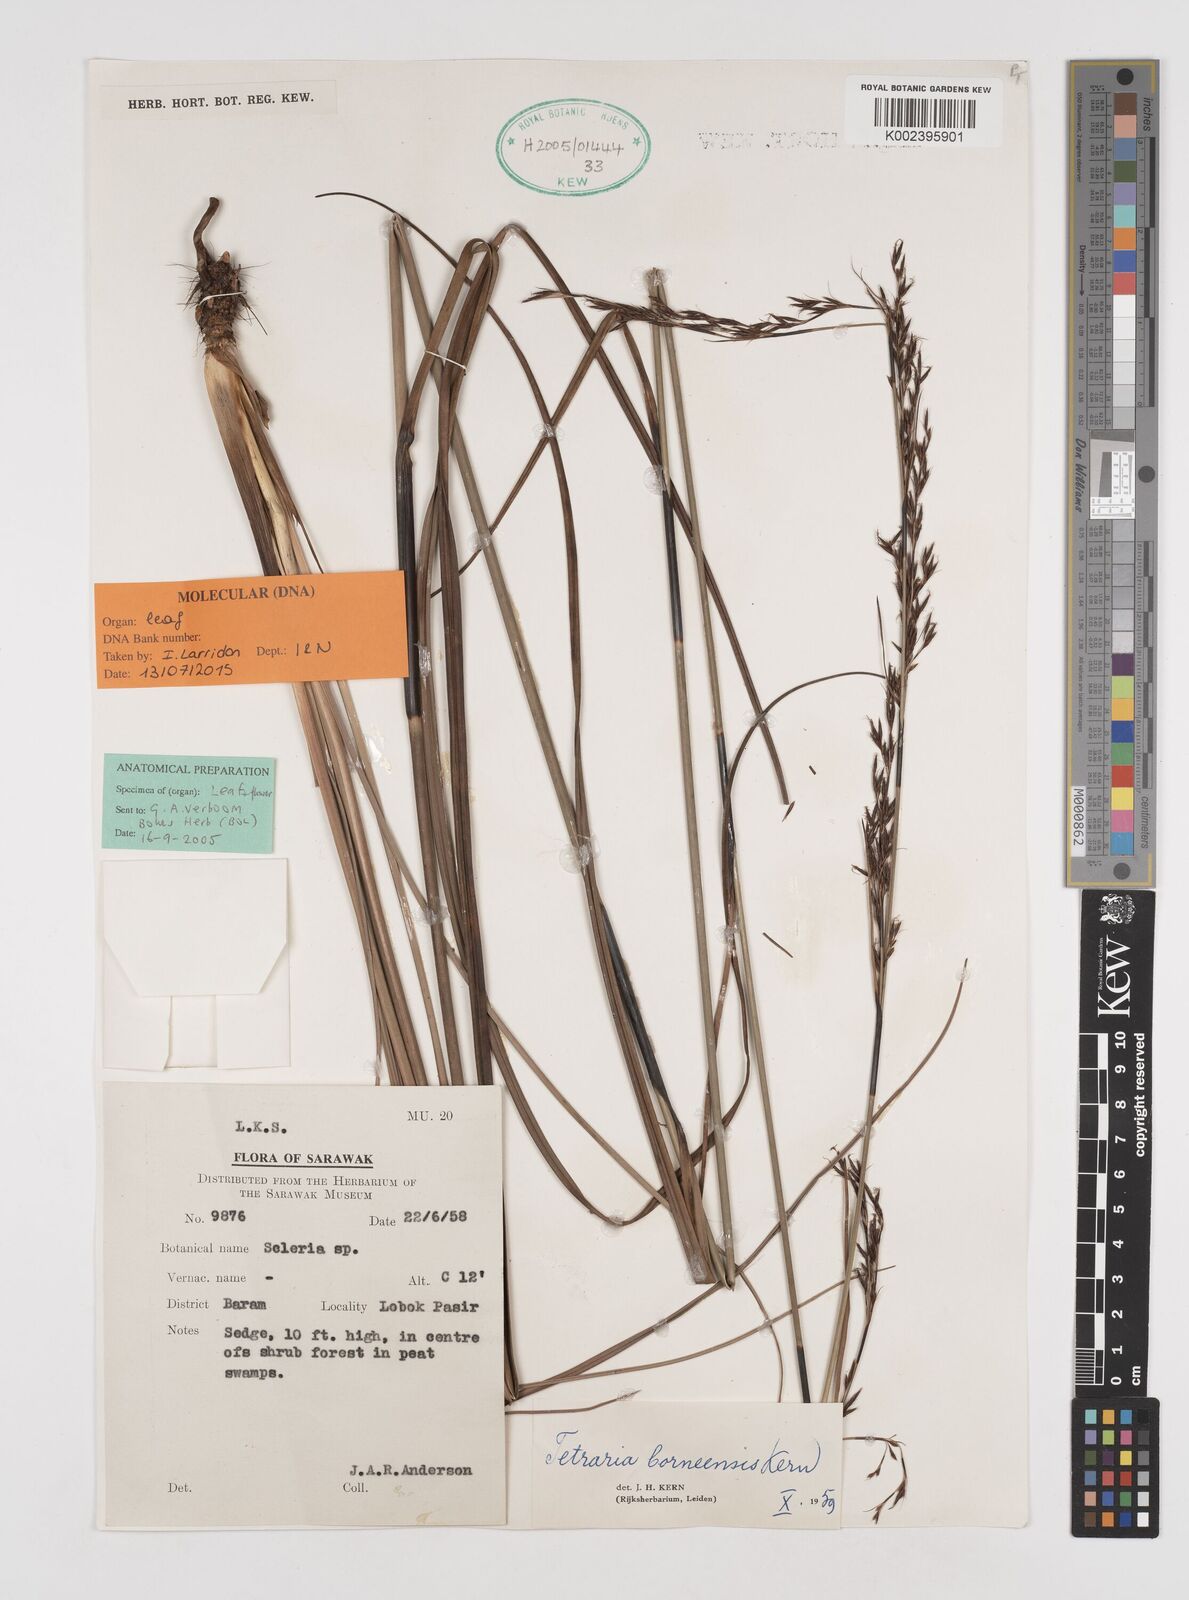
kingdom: Plantae
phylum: Tracheophyta
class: Liliopsida
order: Poales
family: Cyperaceae
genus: Tetraria
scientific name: Tetraria borneensis
